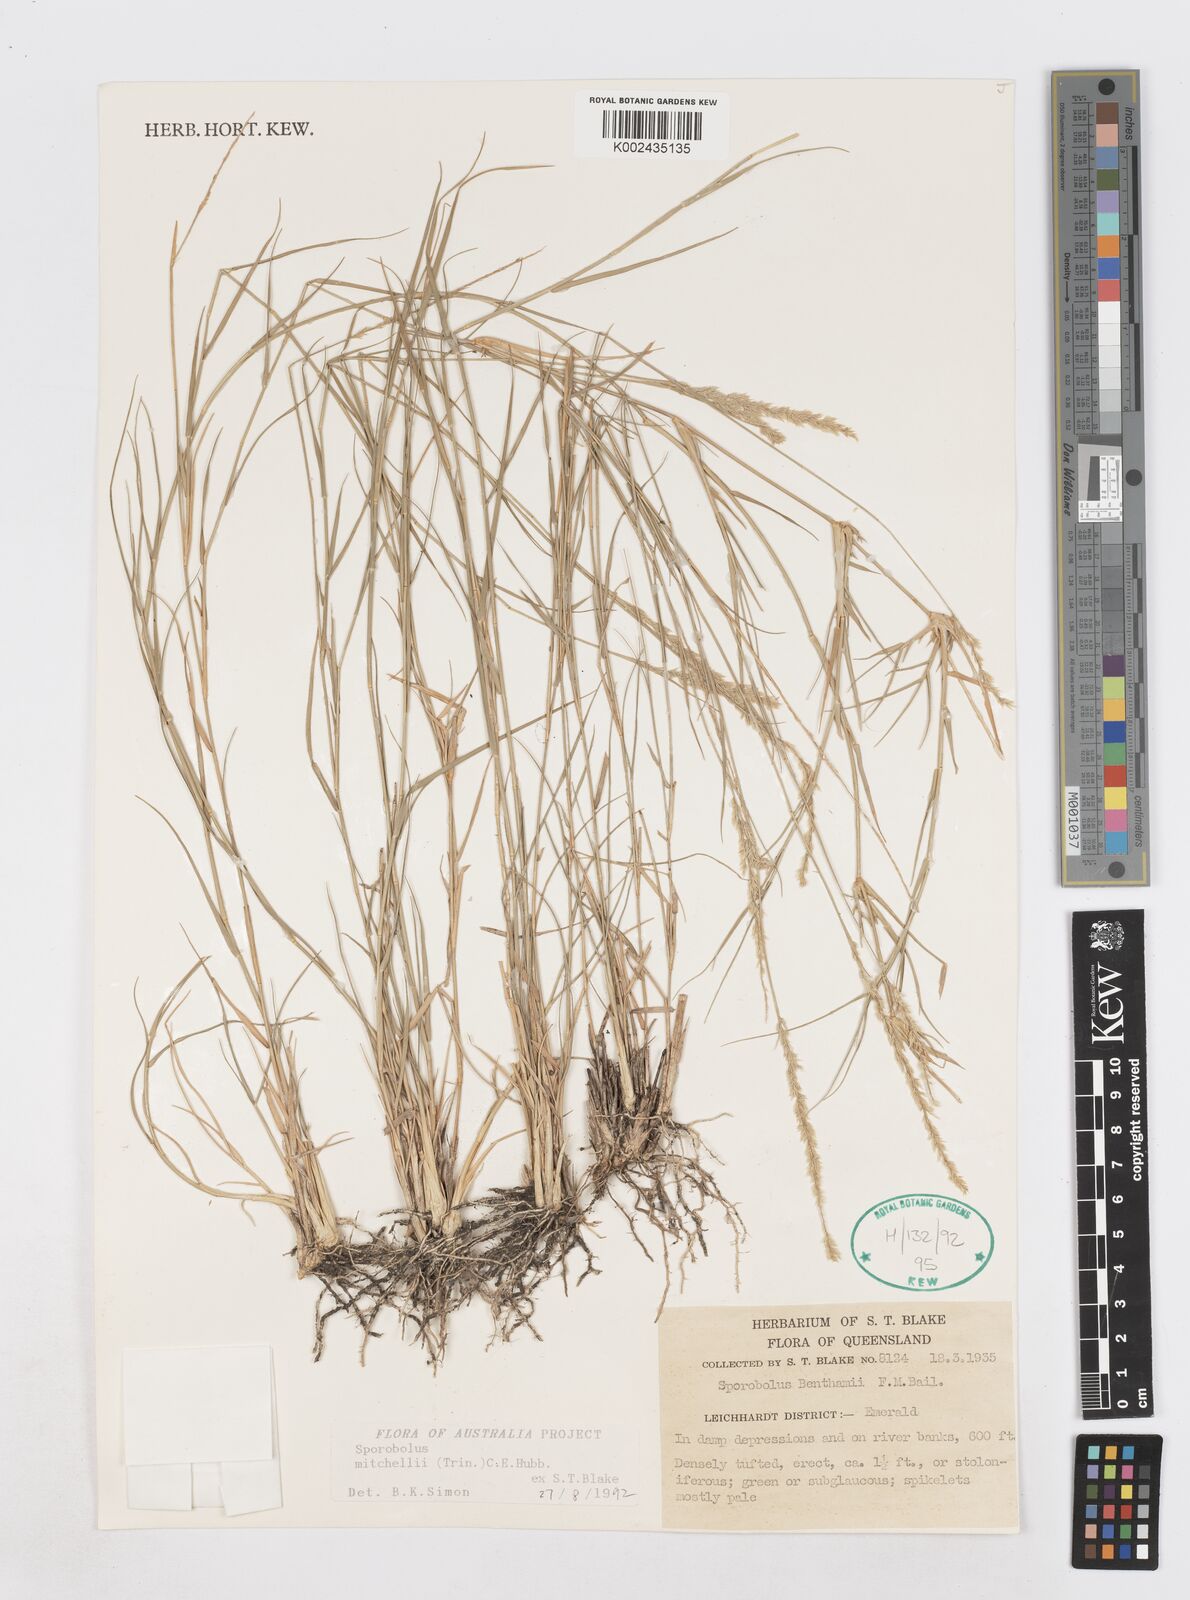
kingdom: Plantae
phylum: Tracheophyta
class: Liliopsida
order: Poales
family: Poaceae
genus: Sporobolus
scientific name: Sporobolus mitchellii
